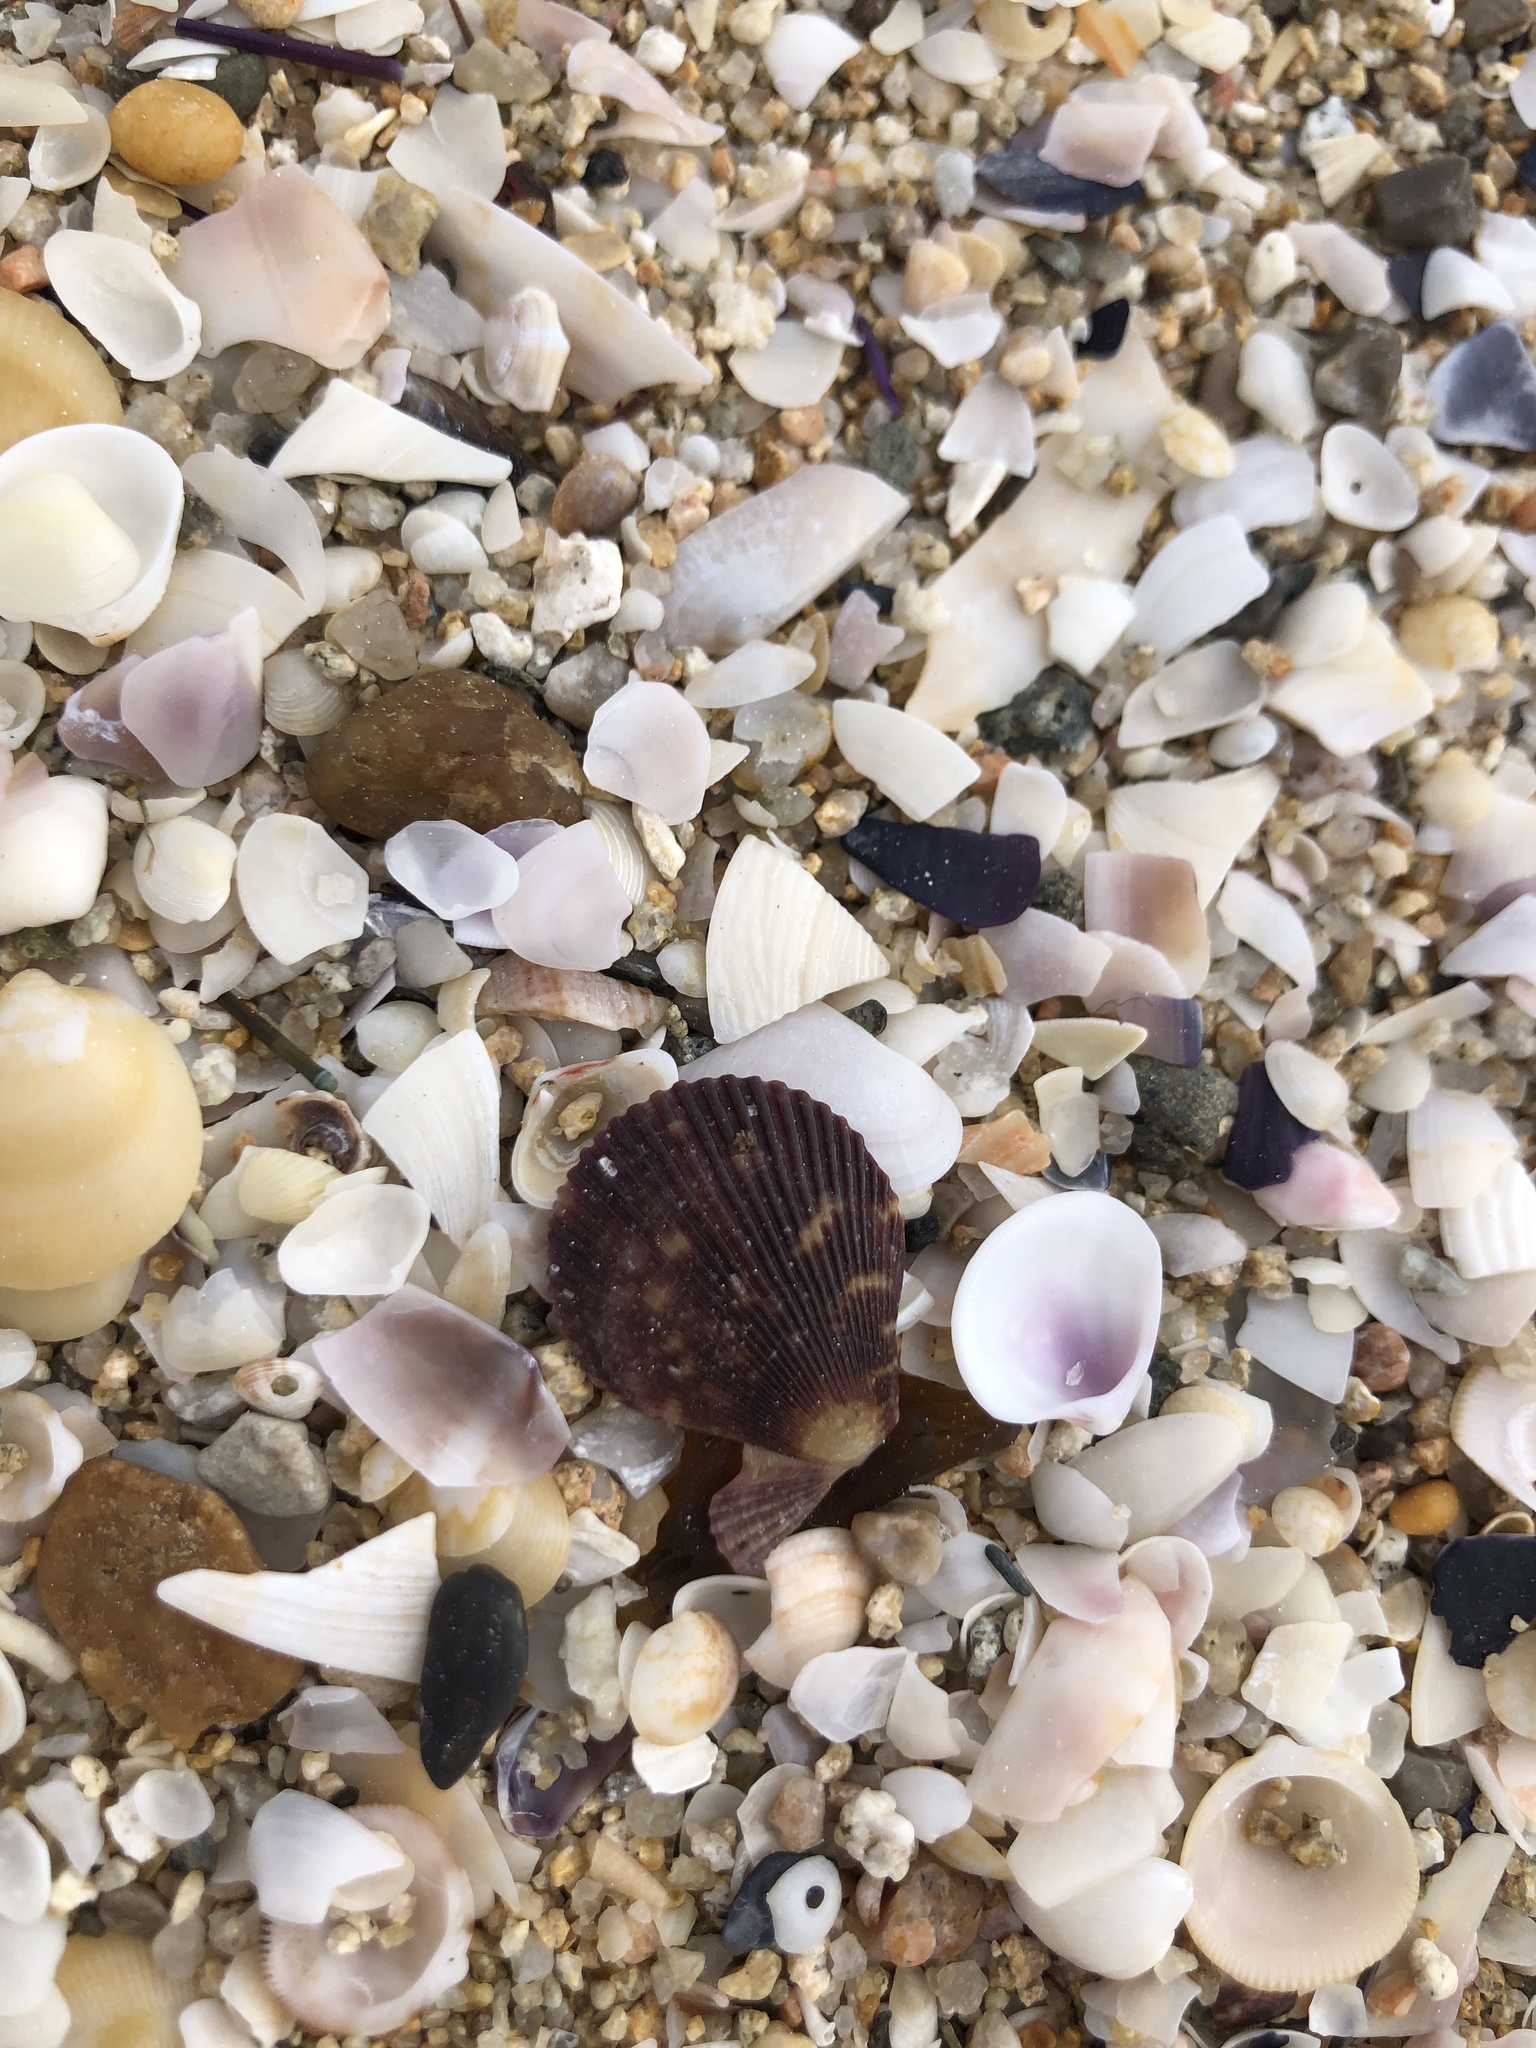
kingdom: Animalia
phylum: Mollusca
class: Bivalvia
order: Pectinida
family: Pectinidae
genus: Mimachlamys
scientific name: Mimachlamys varia
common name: Variegated scallop
